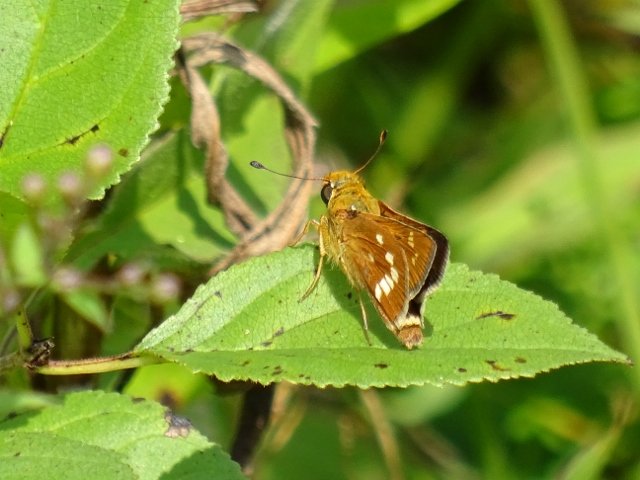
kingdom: Animalia
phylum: Arthropoda
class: Insecta
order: Lepidoptera
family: Hesperiidae
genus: Hesperia
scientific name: Hesperia leonardus
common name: Leonard's Skipper
